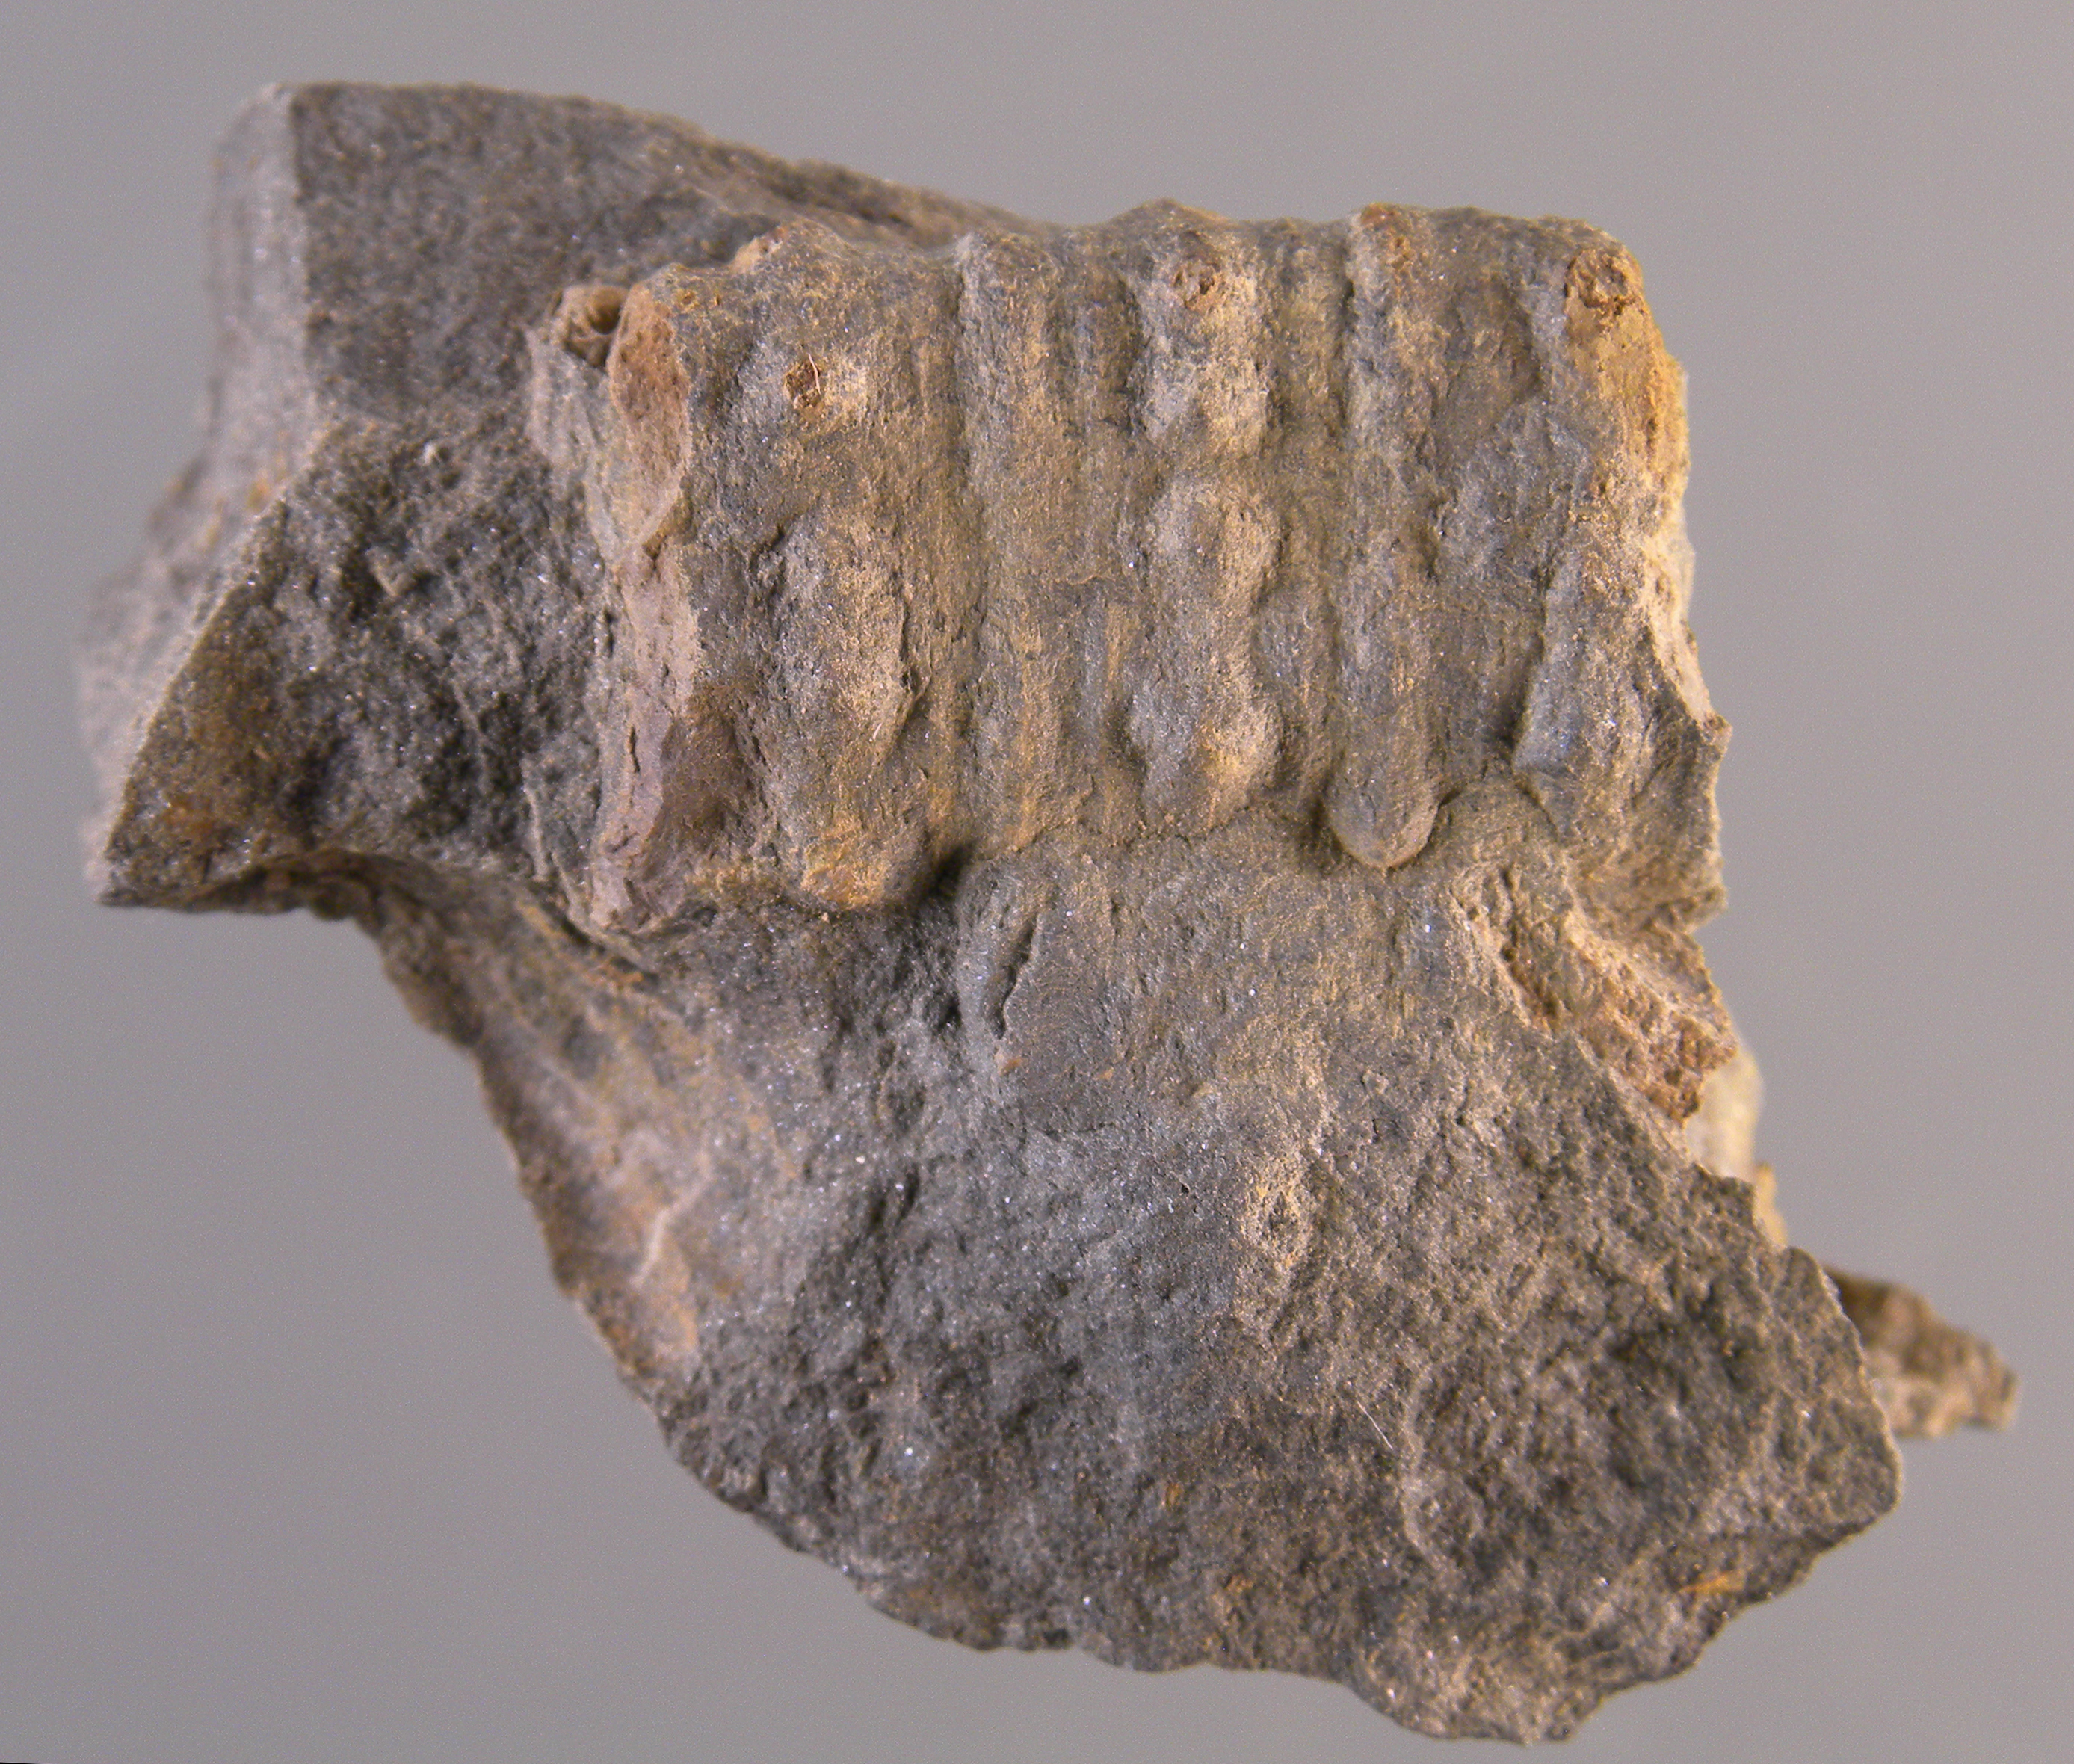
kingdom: Animalia
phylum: Echinodermata
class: Crinoidea
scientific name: Crinoidea
